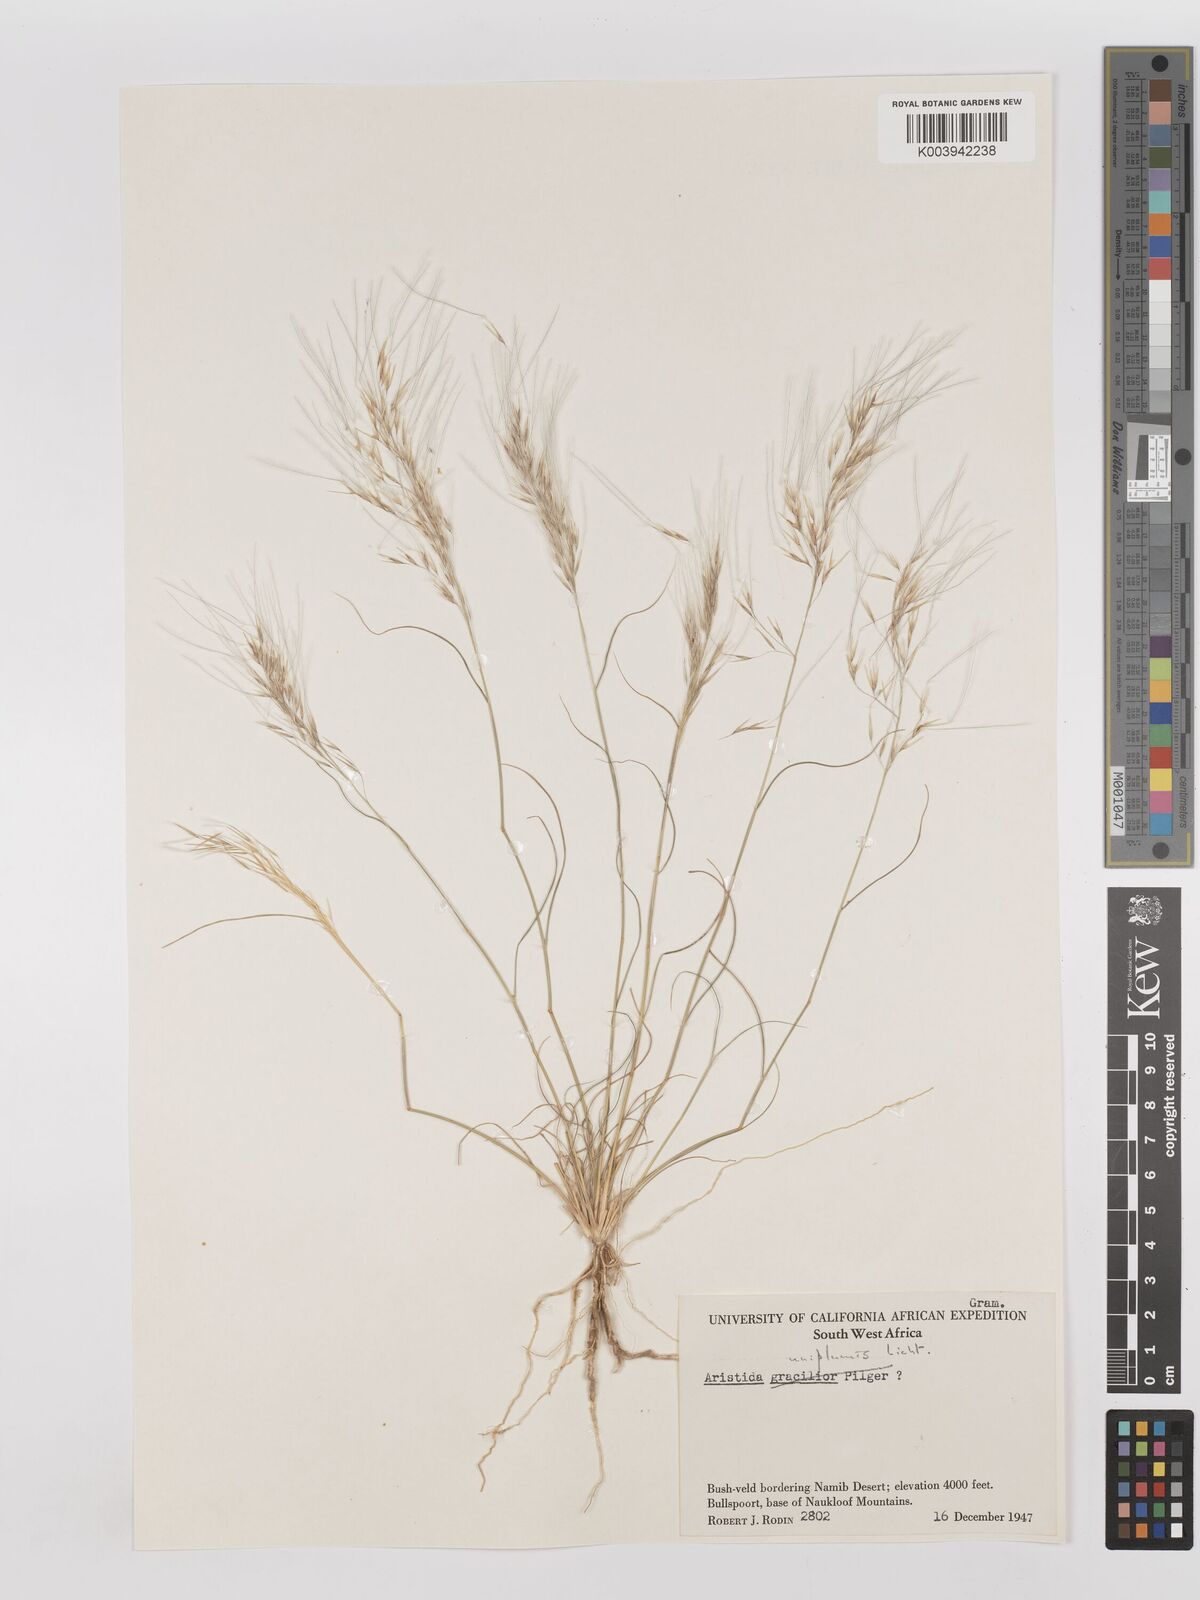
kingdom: Plantae
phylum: Tracheophyta
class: Liliopsida
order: Poales
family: Poaceae
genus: Stipagrostis
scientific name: Stipagrostis uniplumis
